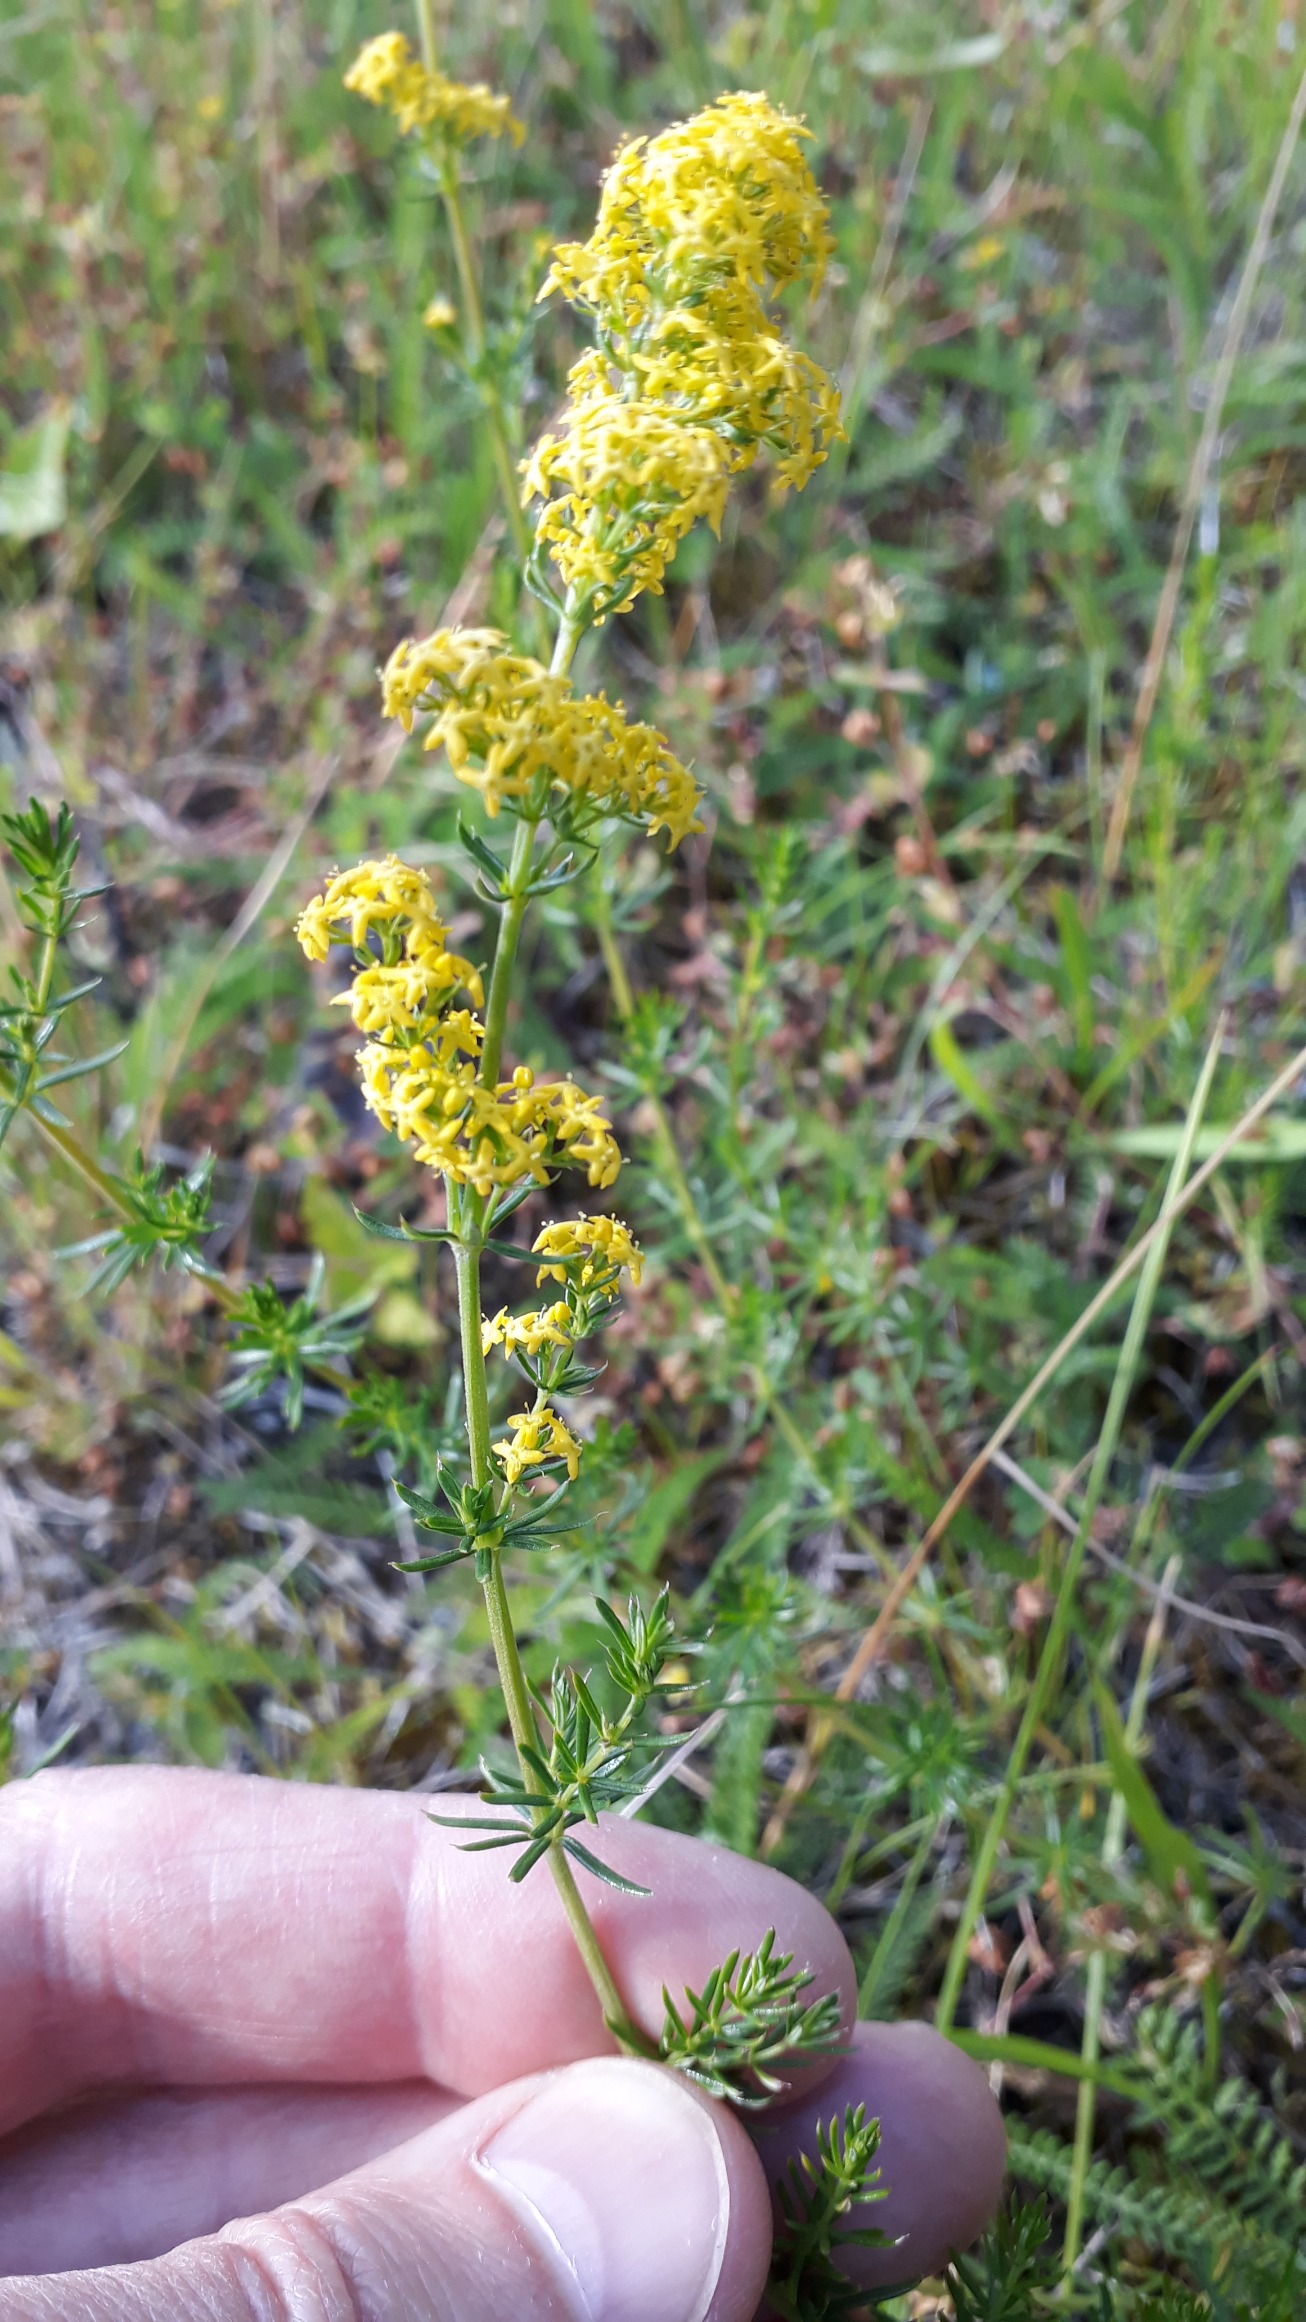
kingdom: Plantae
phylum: Tracheophyta
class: Magnoliopsida
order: Gentianales
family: Rubiaceae
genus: Galium
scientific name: Galium verum
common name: Gul snerre
